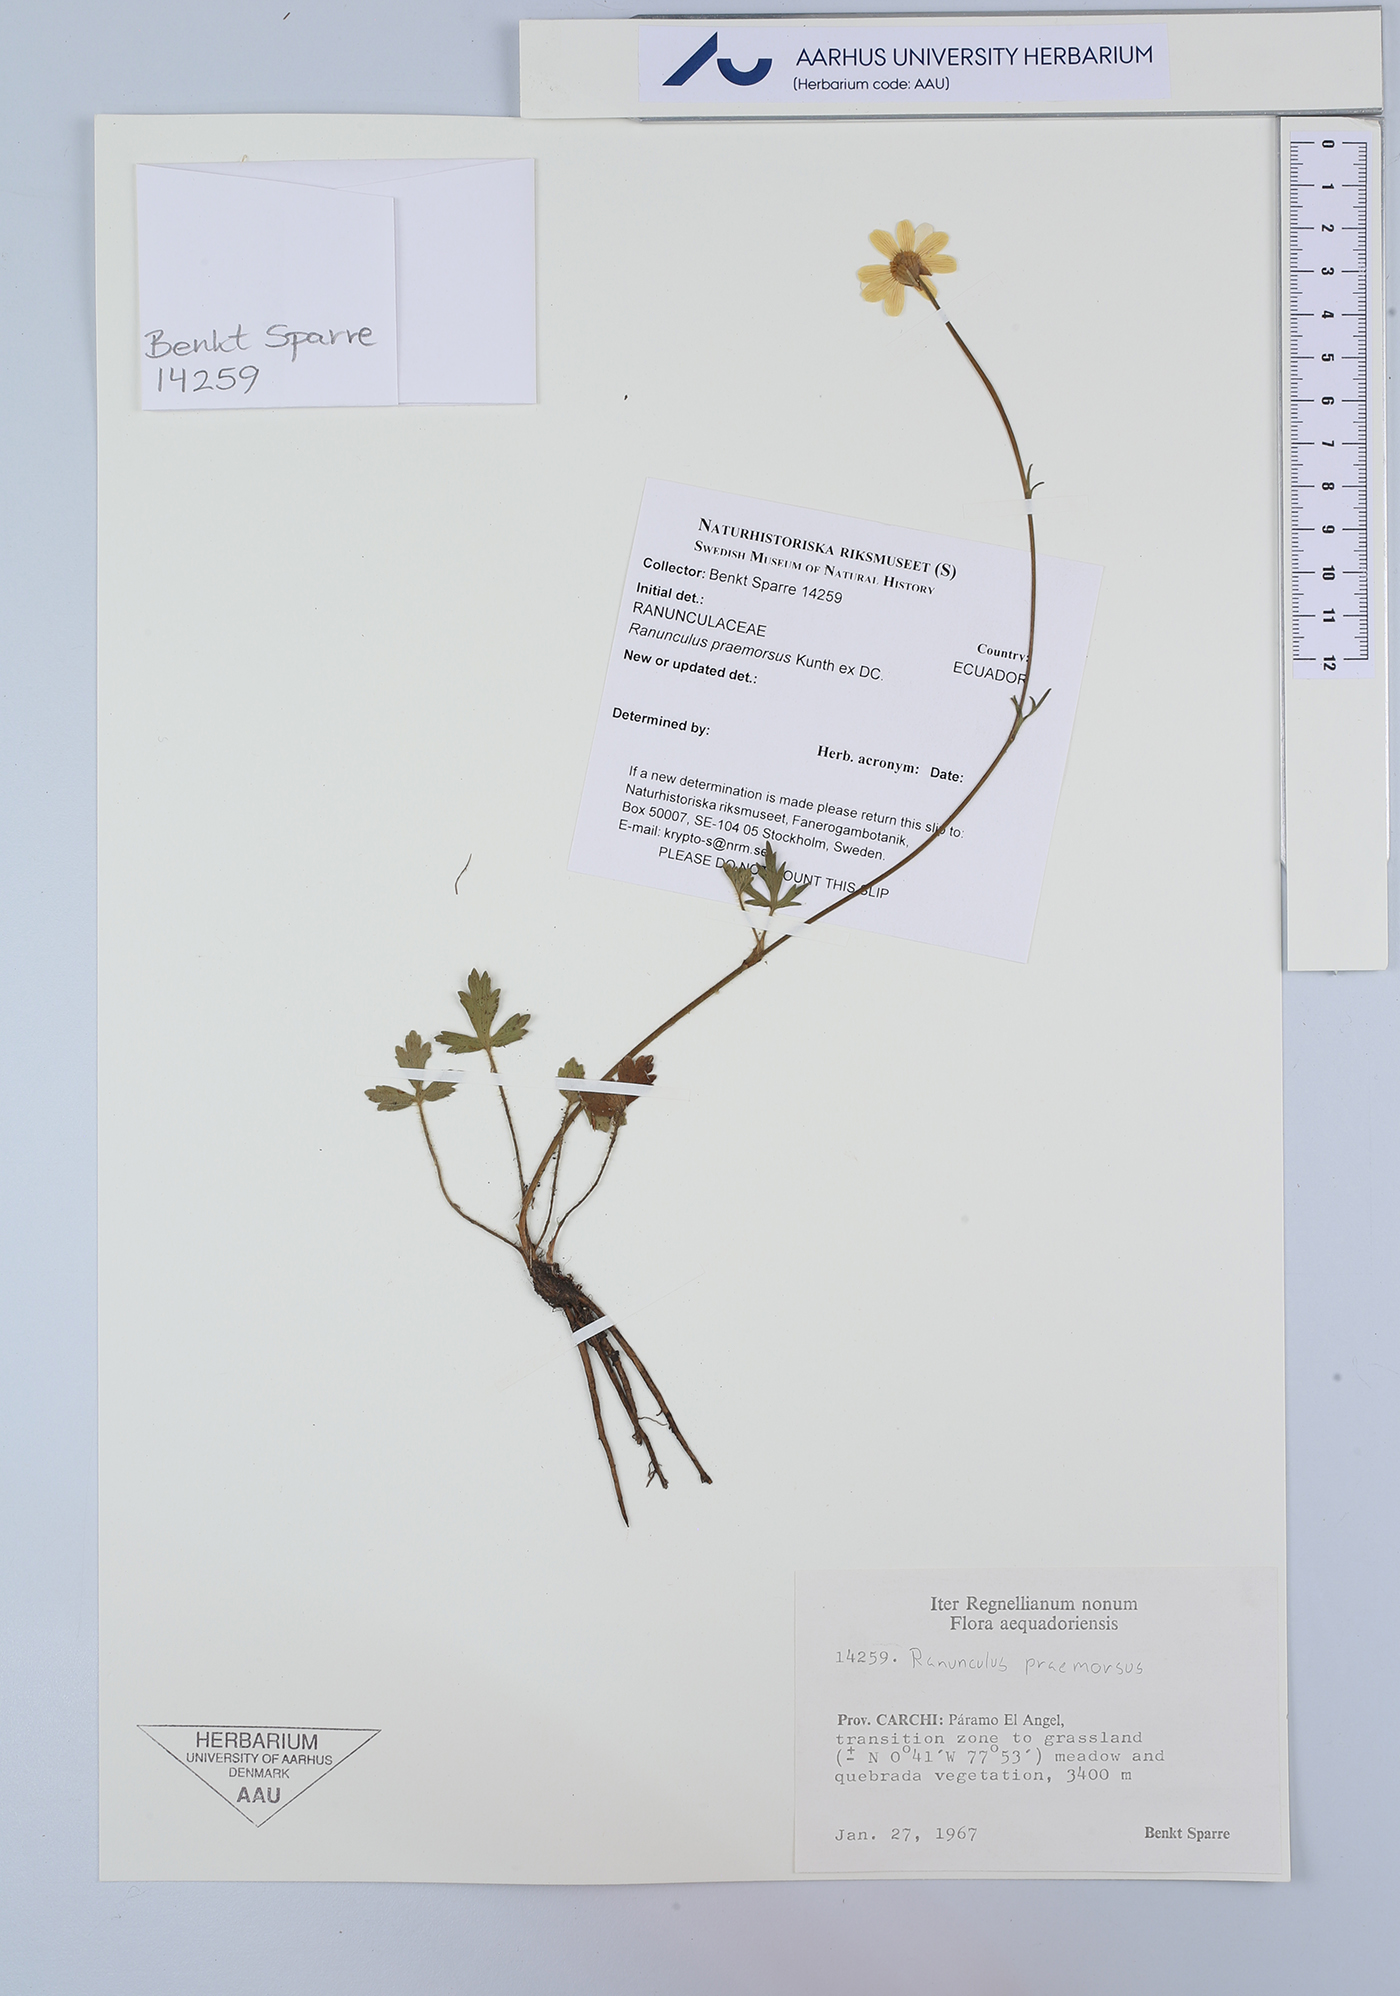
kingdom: Plantae
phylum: Tracheophyta
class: Magnoliopsida
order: Ranunculales
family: Ranunculaceae
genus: Ranunculus
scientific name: Ranunculus praemorsus
